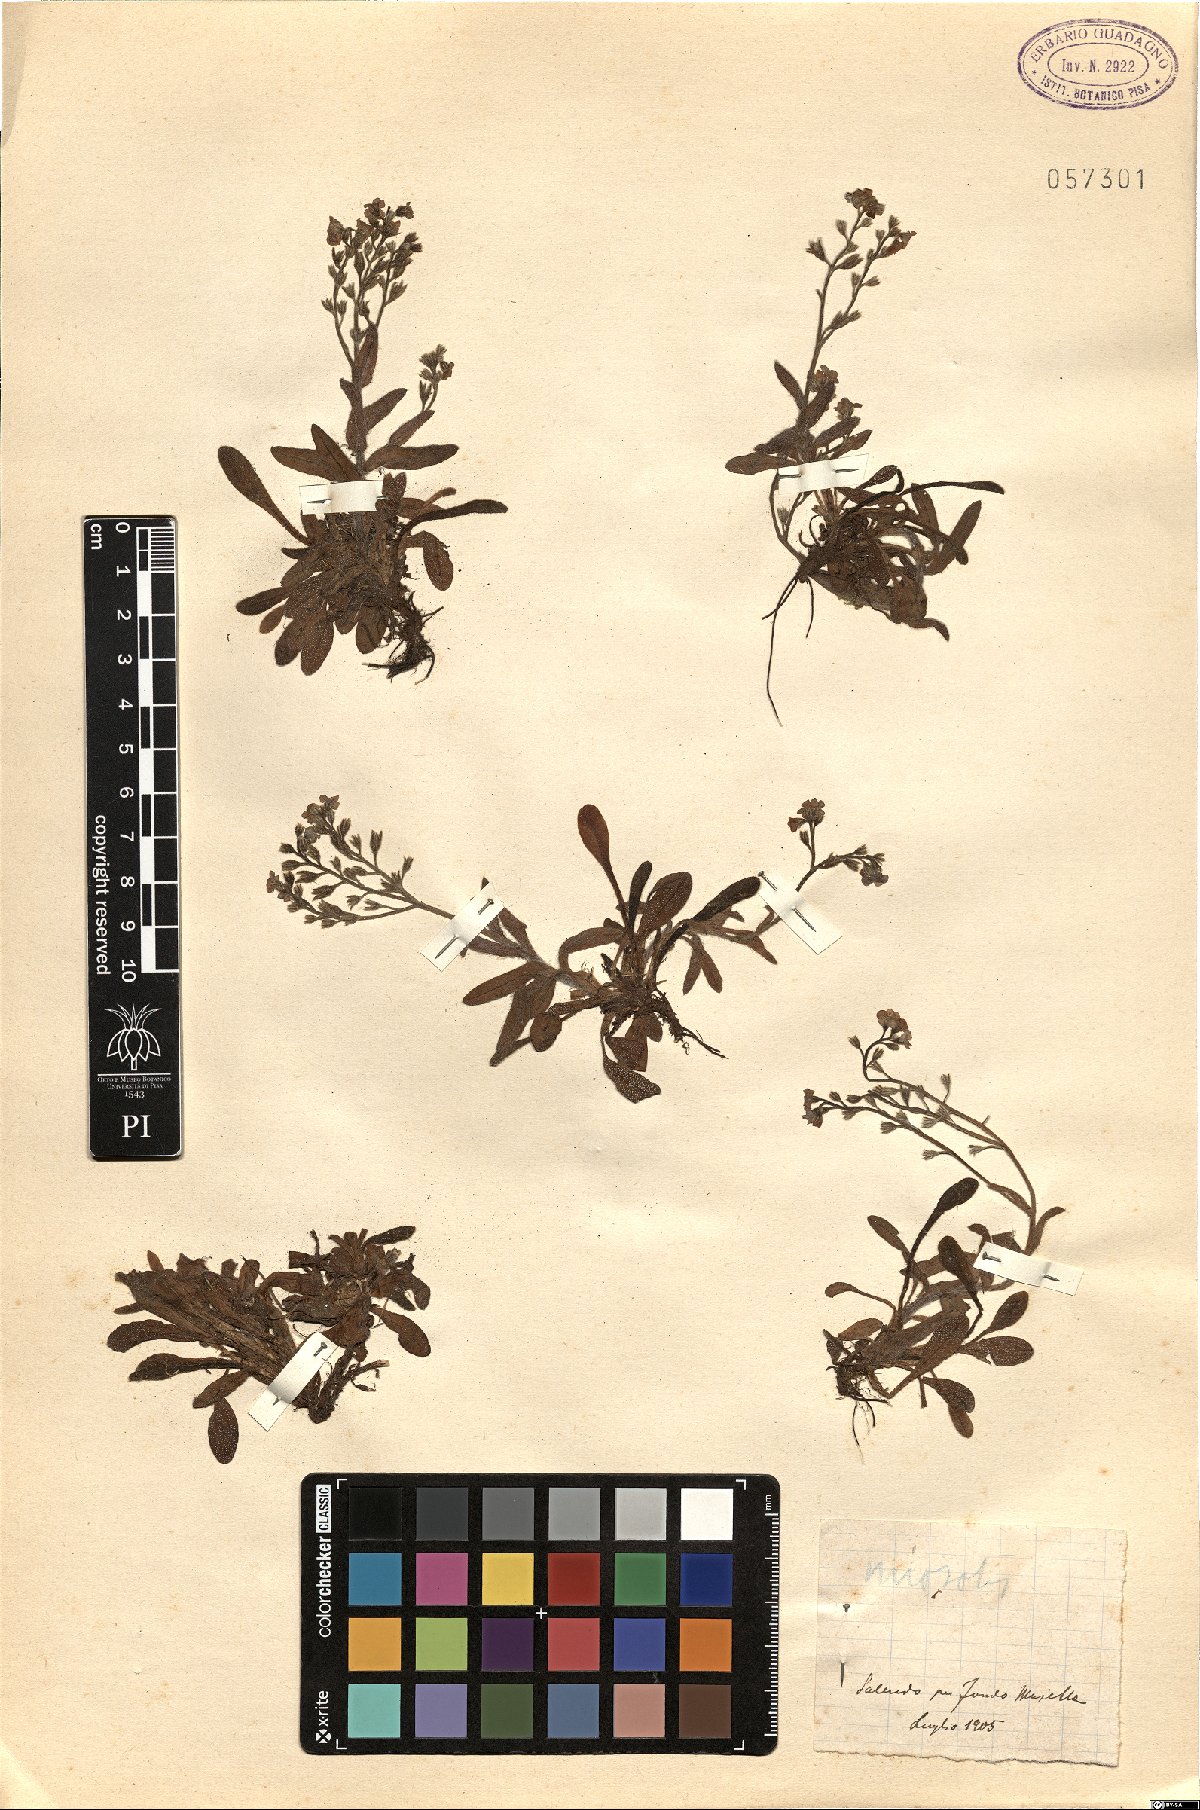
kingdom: Plantae
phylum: Tracheophyta
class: Magnoliopsida
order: Boraginales
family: Boraginaceae
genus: Myosotis
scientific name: Myosotis
